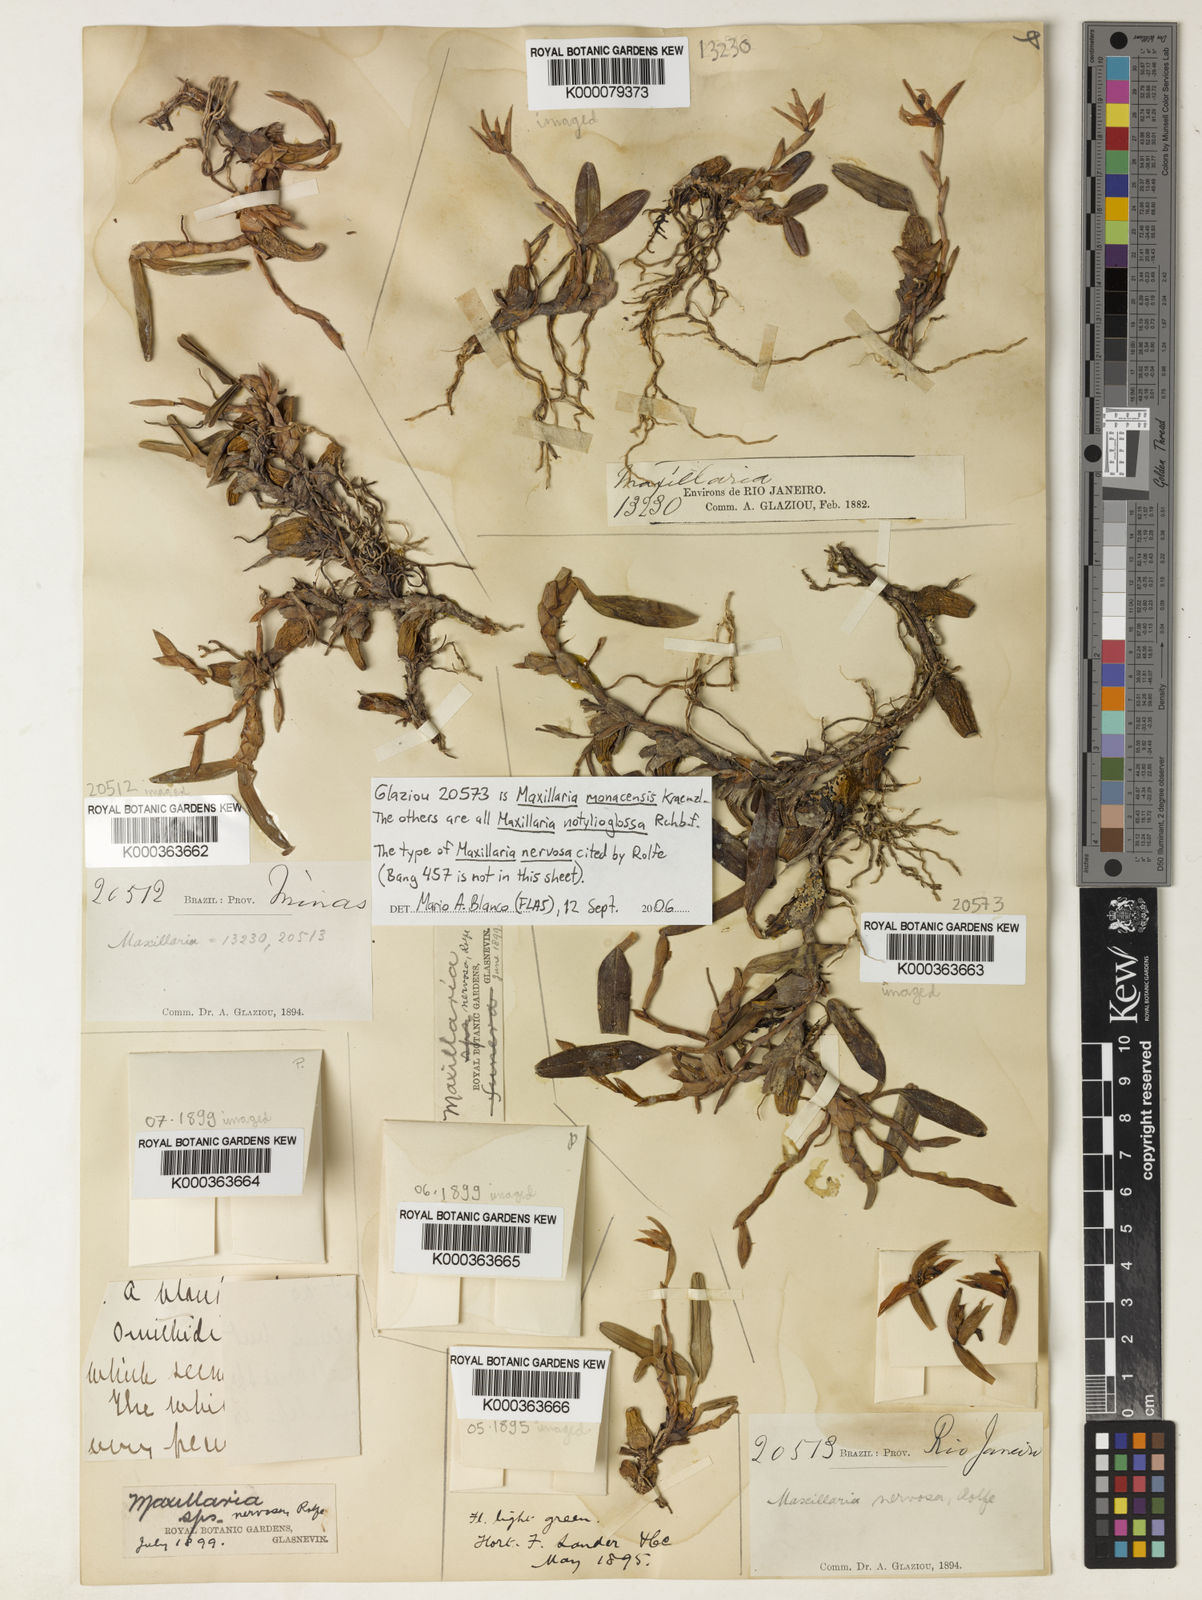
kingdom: Plantae
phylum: Tracheophyta
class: Liliopsida
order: Asparagales
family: Orchidaceae
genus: Maxillaria
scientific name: Maxillaria notylioglossa
